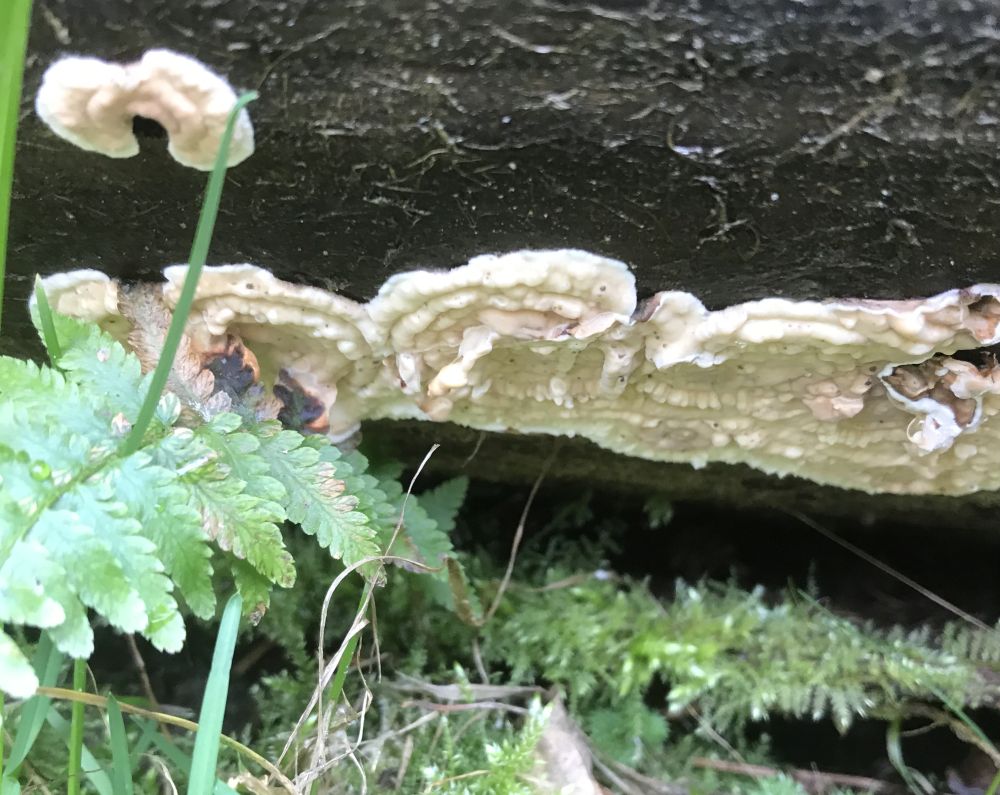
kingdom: Fungi
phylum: Basidiomycota
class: Agaricomycetes
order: Polyporales
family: Dacryobolaceae
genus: Dacryobolus
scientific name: Dacryobolus karstenii
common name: glat vulkanskorpe
